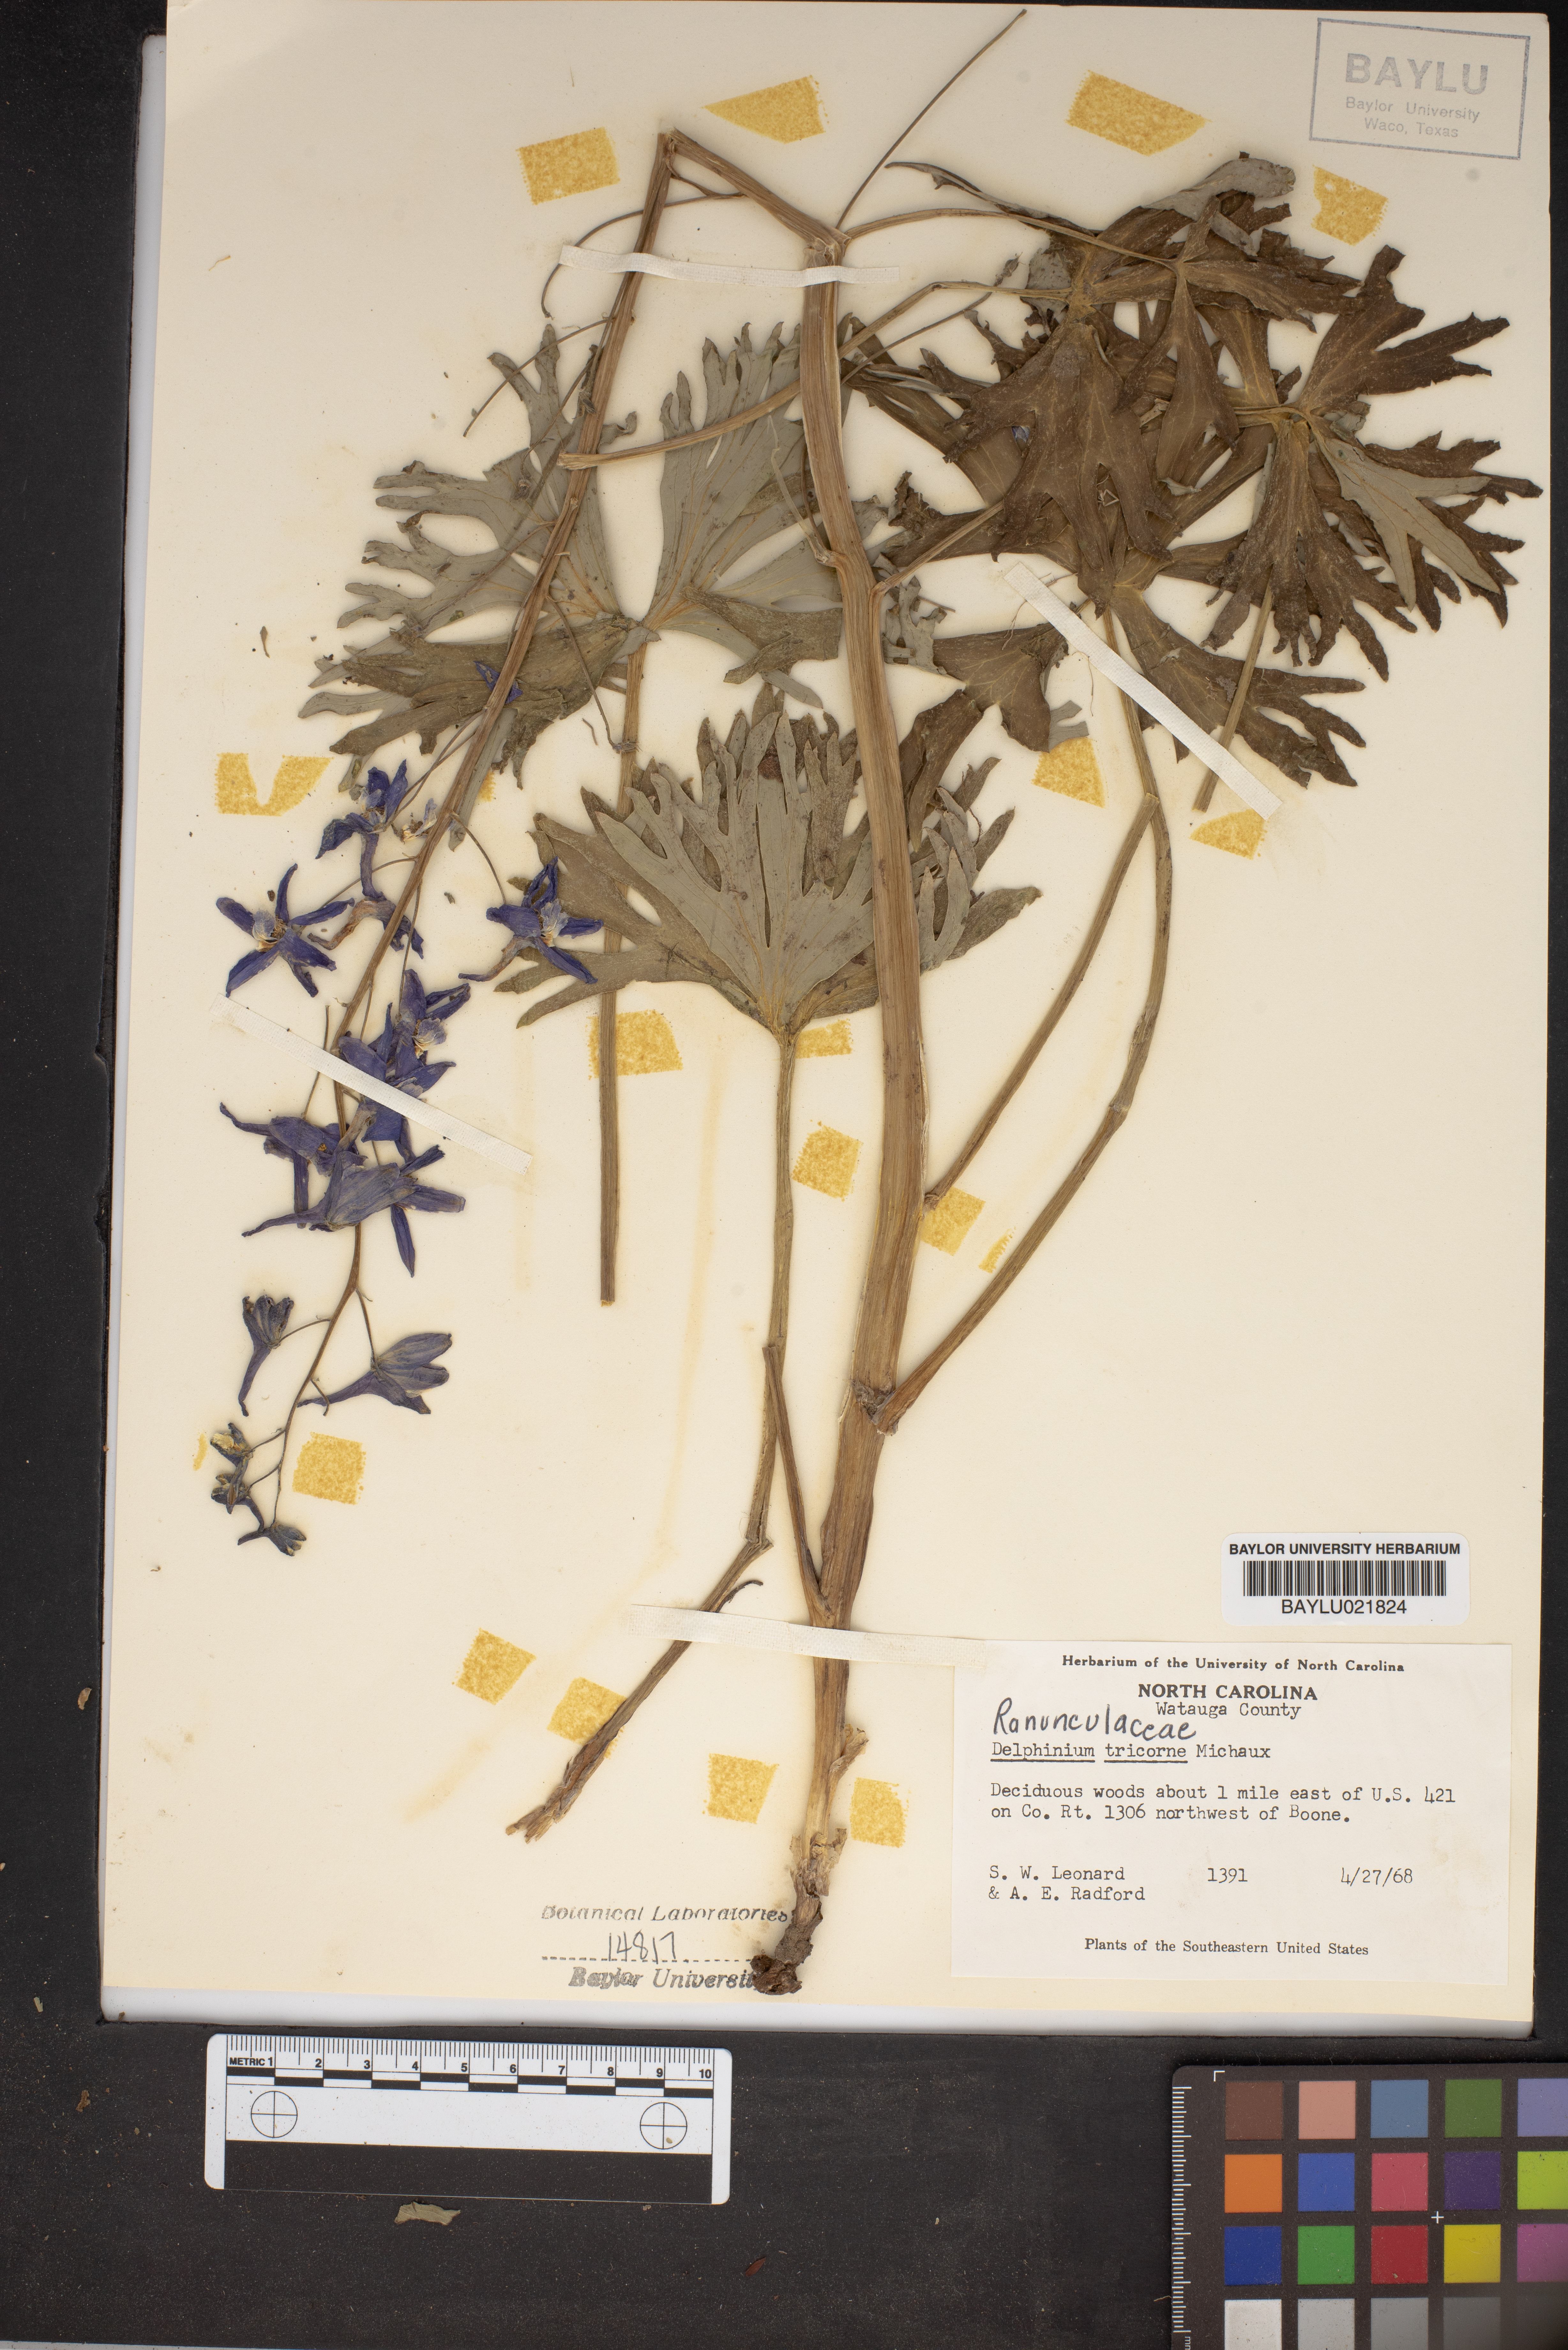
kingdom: Plantae
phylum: Tracheophyta
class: Magnoliopsida
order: Ranunculales
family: Ranunculaceae
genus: Delphinium
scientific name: Delphinium tricorne
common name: Dwarf larkspur
